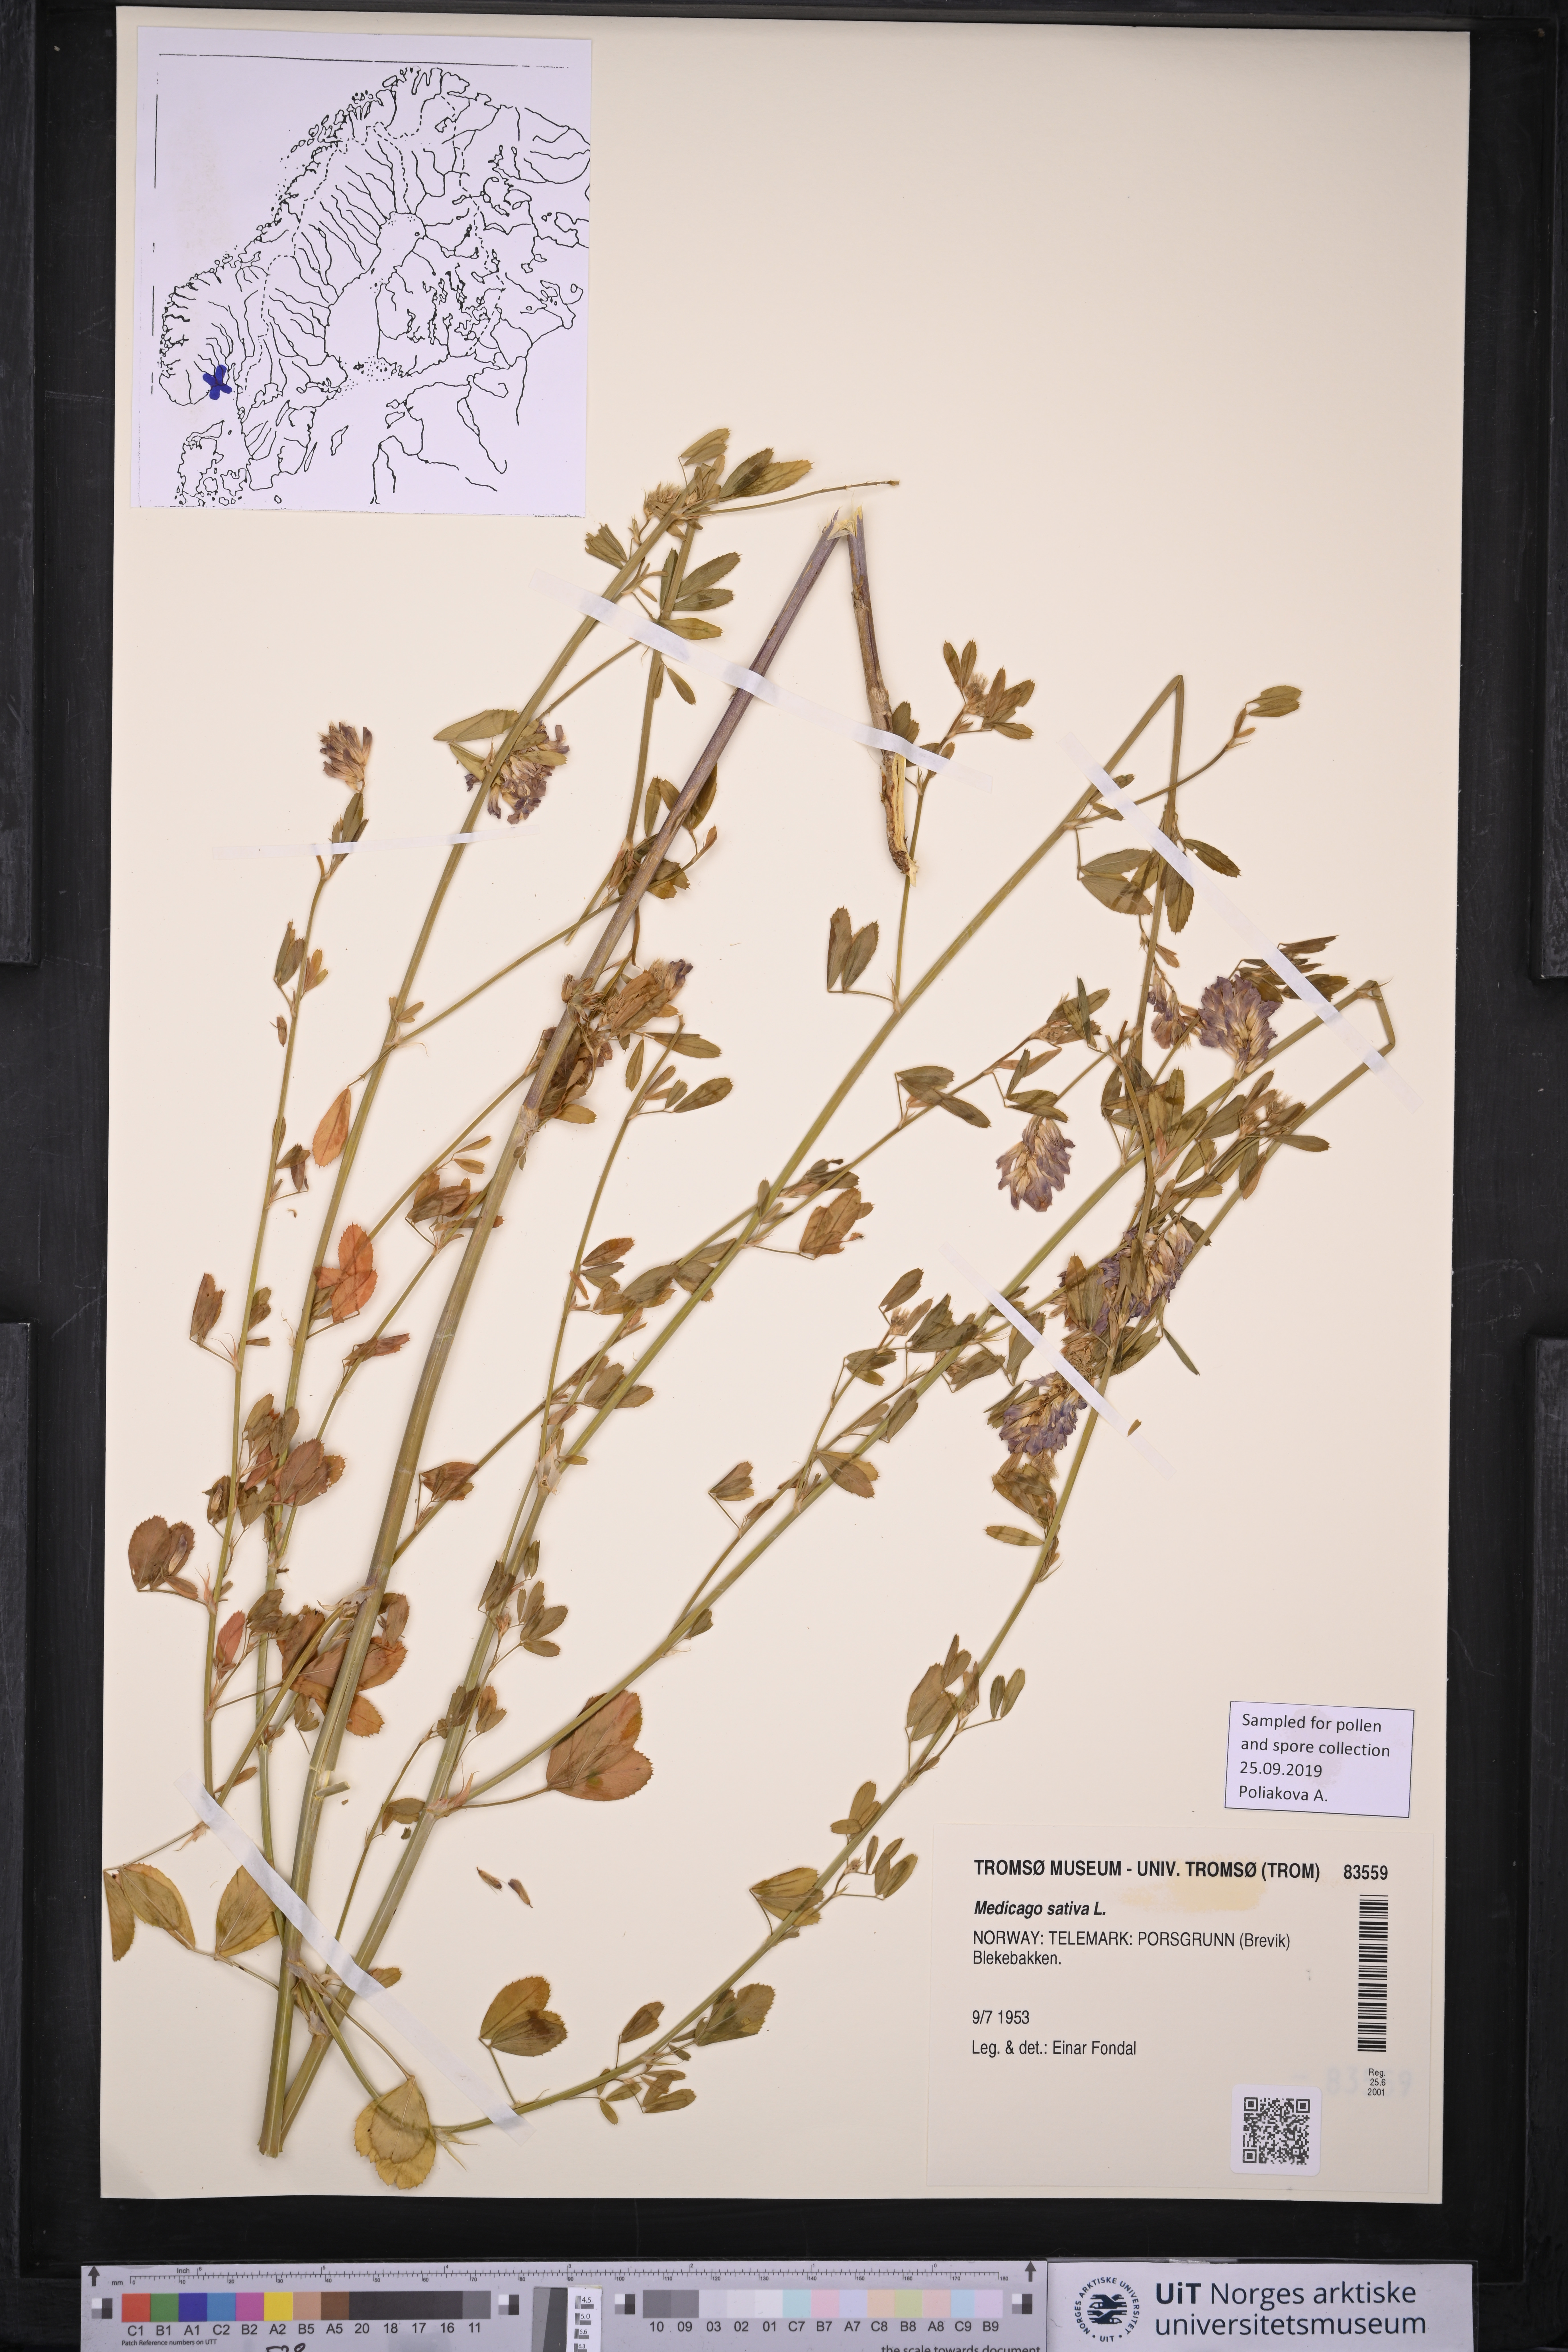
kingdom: Plantae
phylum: Tracheophyta
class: Magnoliopsida
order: Fabales
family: Fabaceae
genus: Medicago
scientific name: Medicago sativa
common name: Alfalfa
